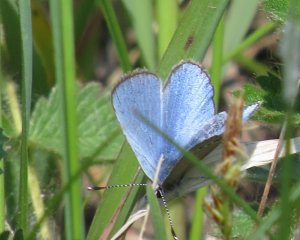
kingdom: Animalia
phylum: Arthropoda
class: Insecta
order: Lepidoptera
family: Lycaenidae
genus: Glaucopsyche
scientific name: Glaucopsyche lygdamus
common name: Silvery Blue
